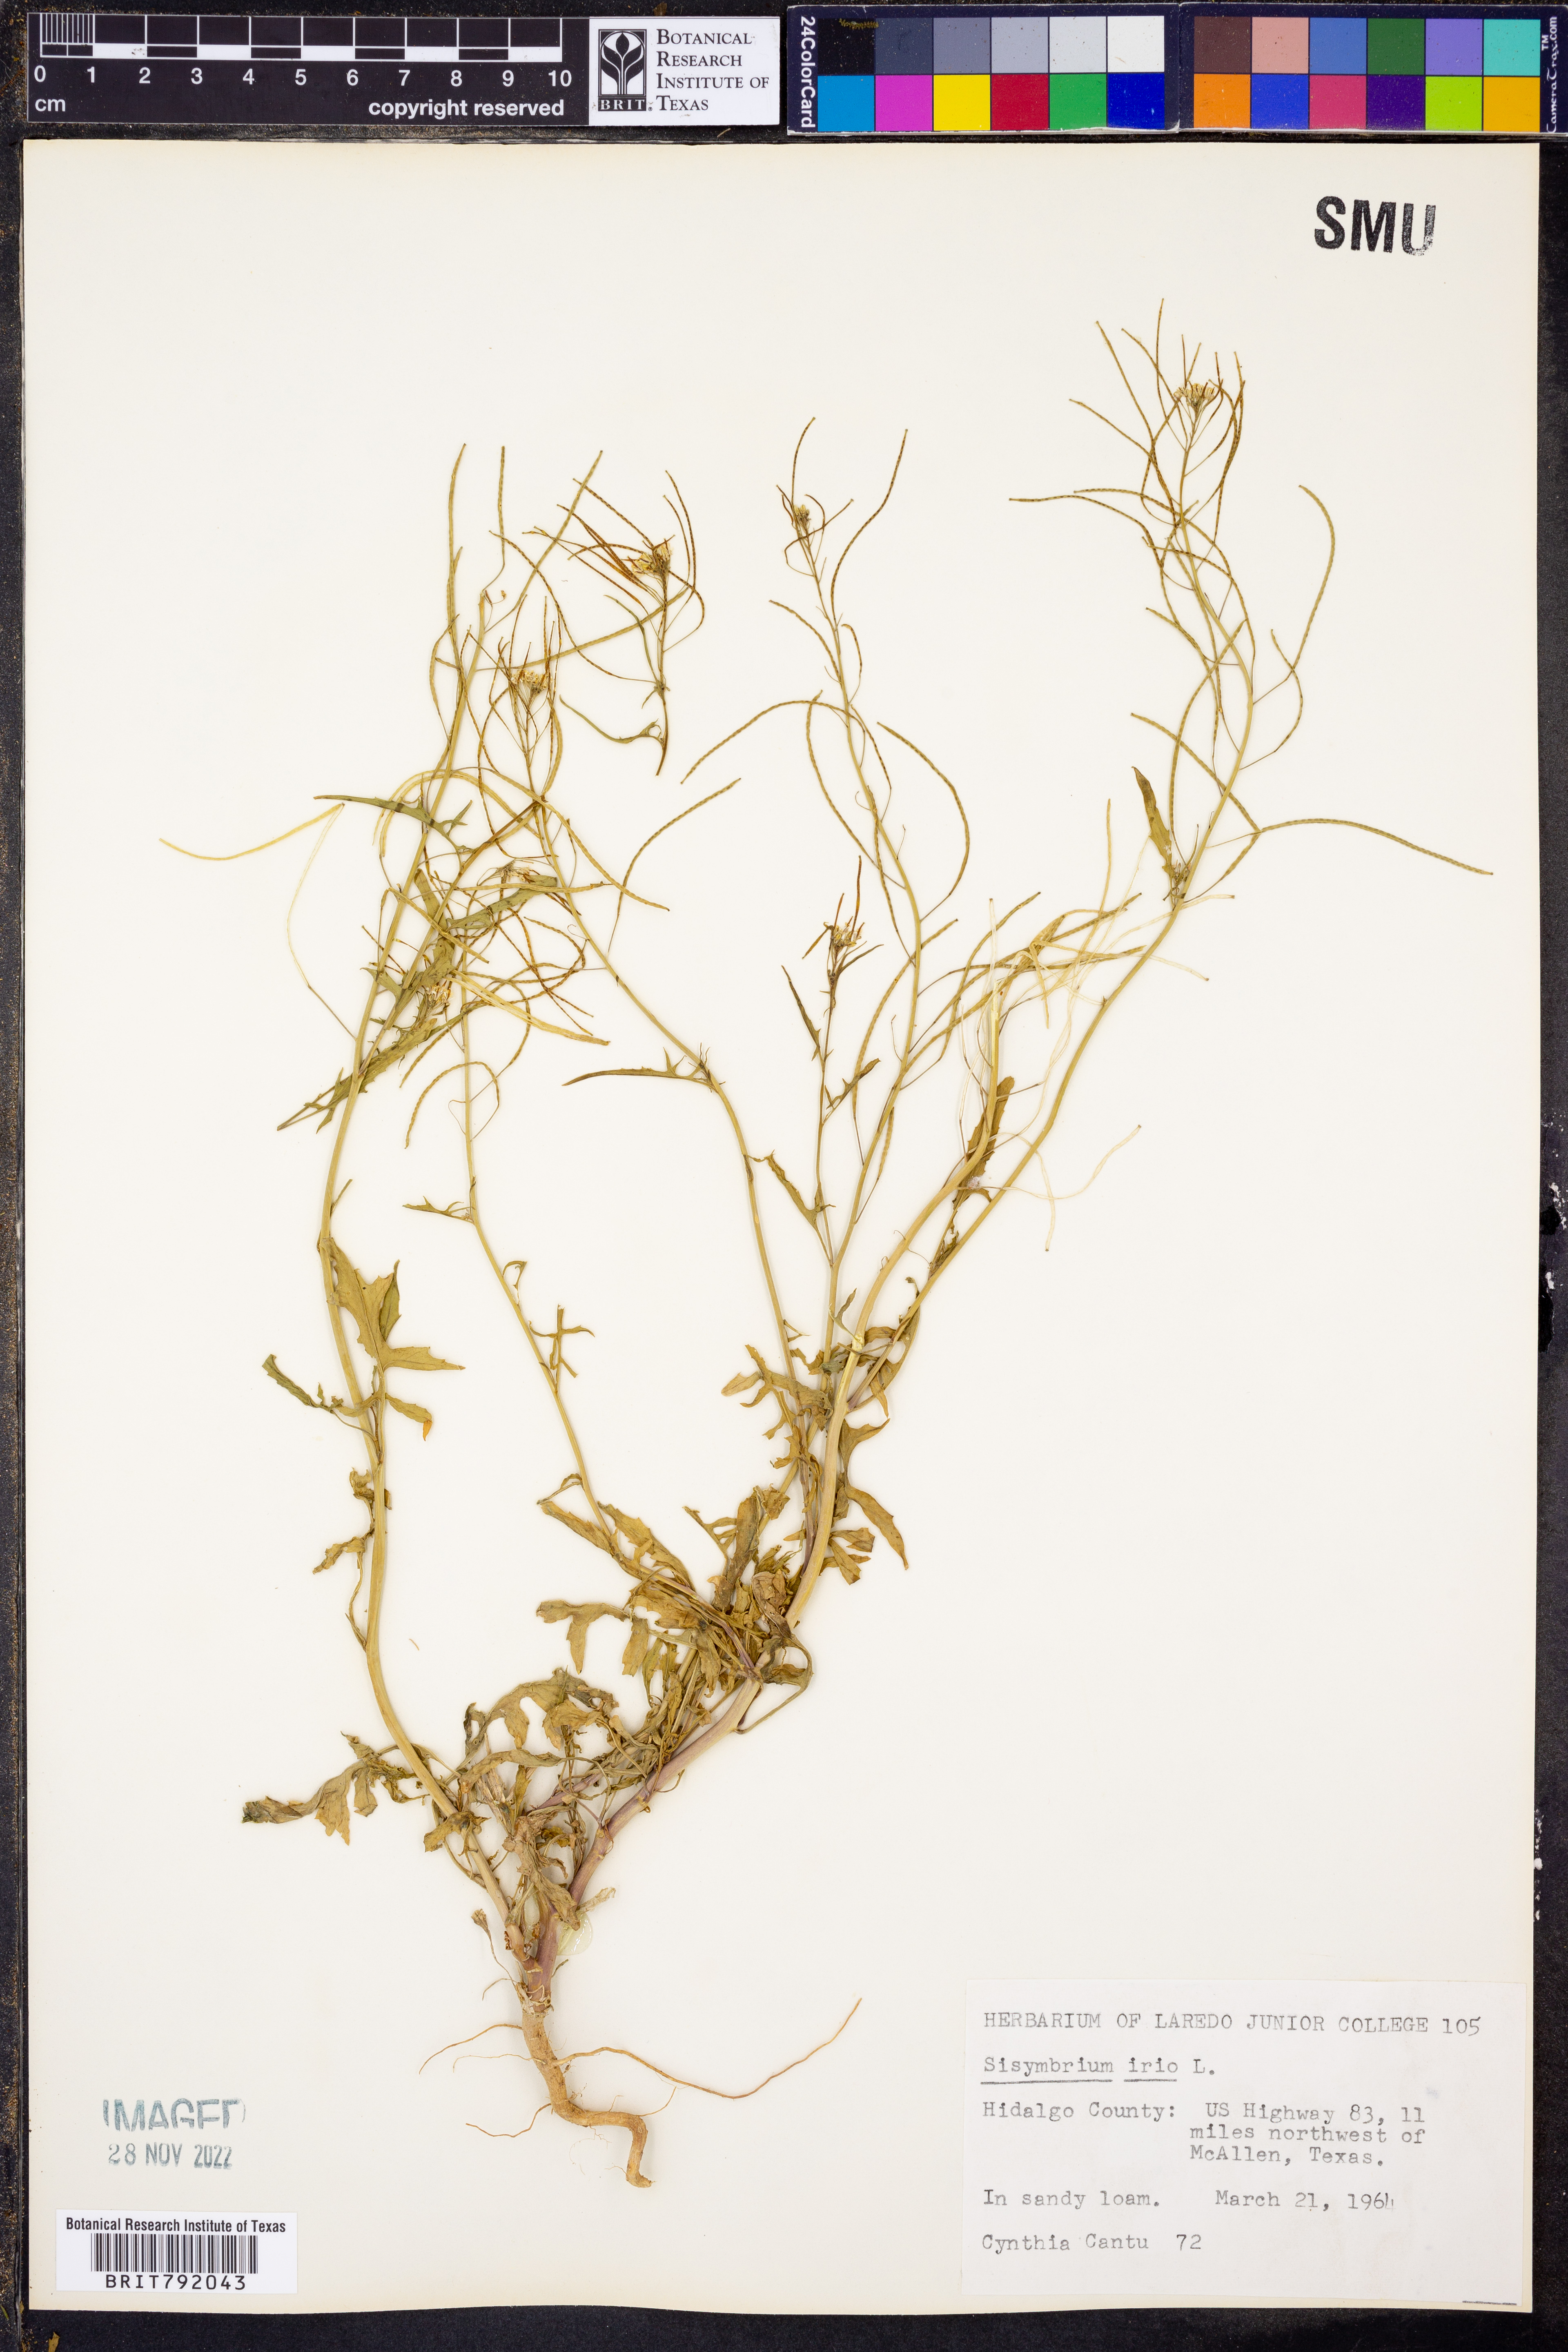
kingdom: Plantae
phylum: Tracheophyta
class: Magnoliopsida
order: Brassicales
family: Brassicaceae
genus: Sisymbrium
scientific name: Sisymbrium irio
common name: London rocket
